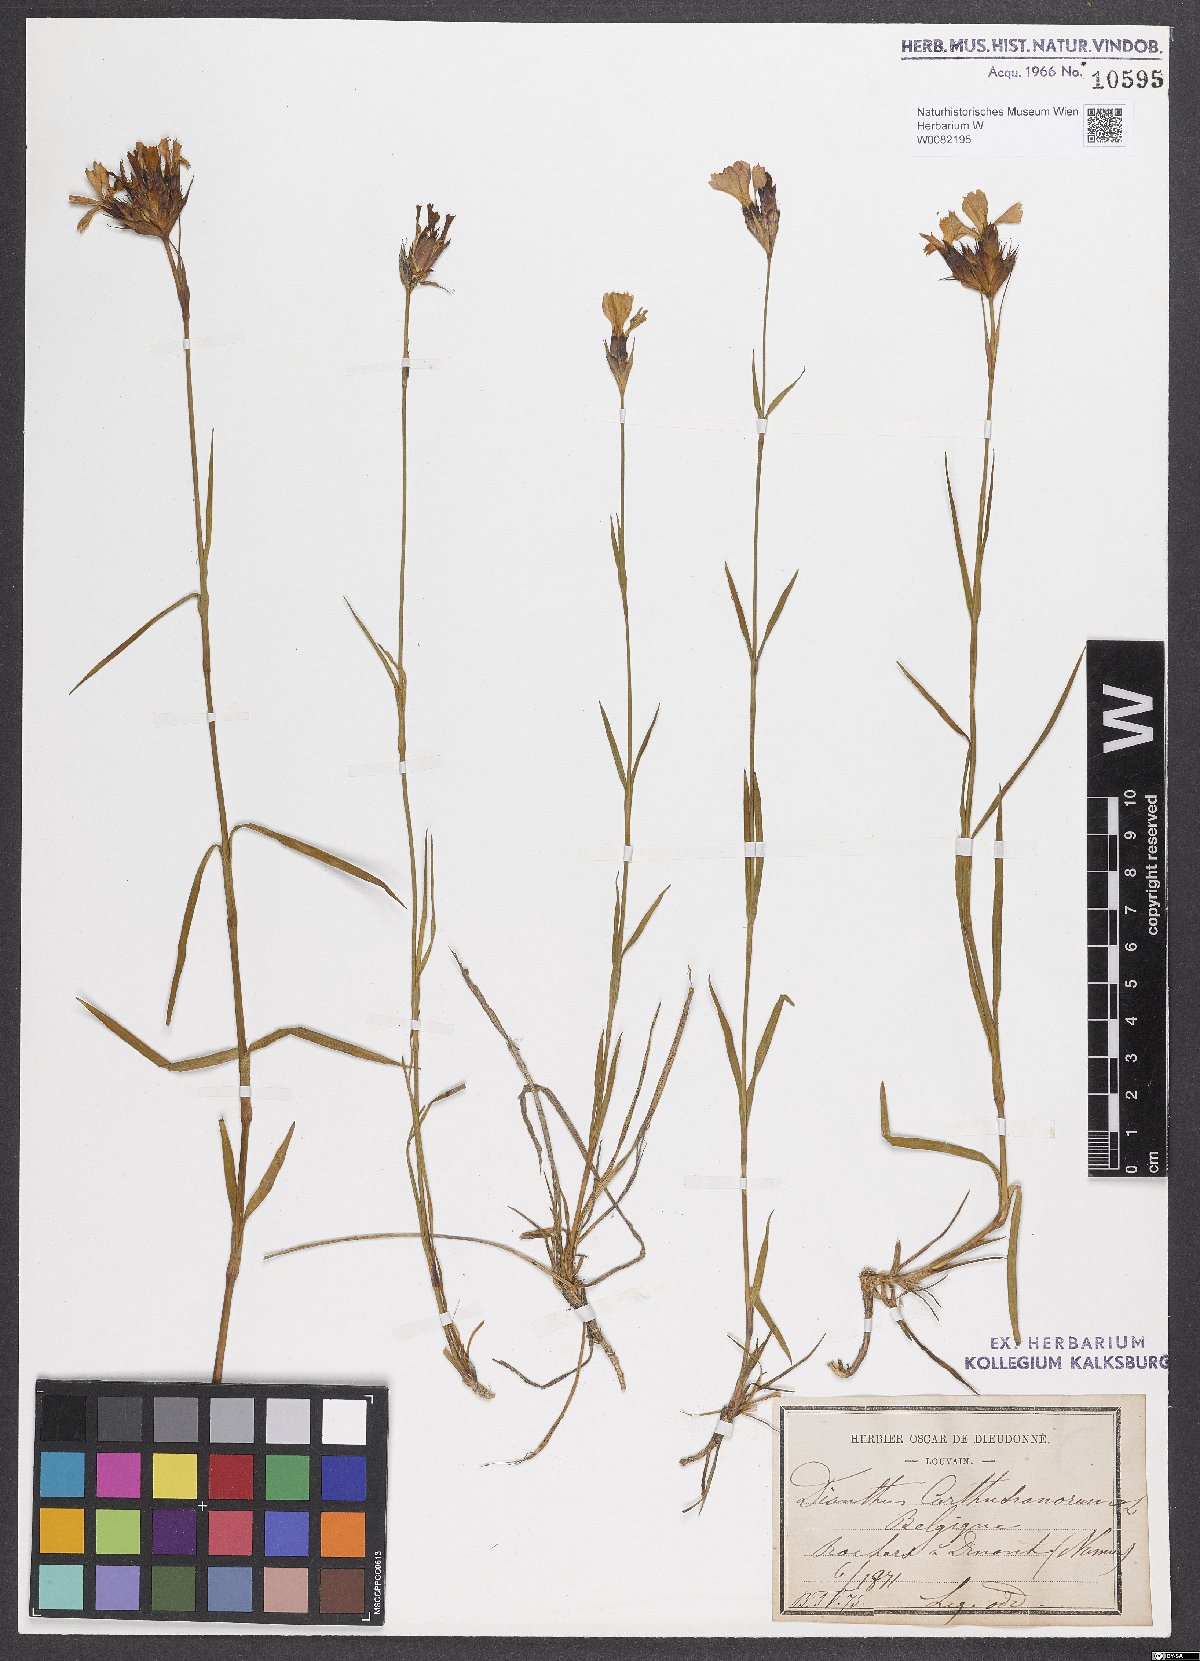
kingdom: Plantae
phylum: Tracheophyta
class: Magnoliopsida
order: Caryophyllales
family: Caryophyllaceae
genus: Dianthus
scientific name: Dianthus carthusianorum
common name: Carthusian pink
